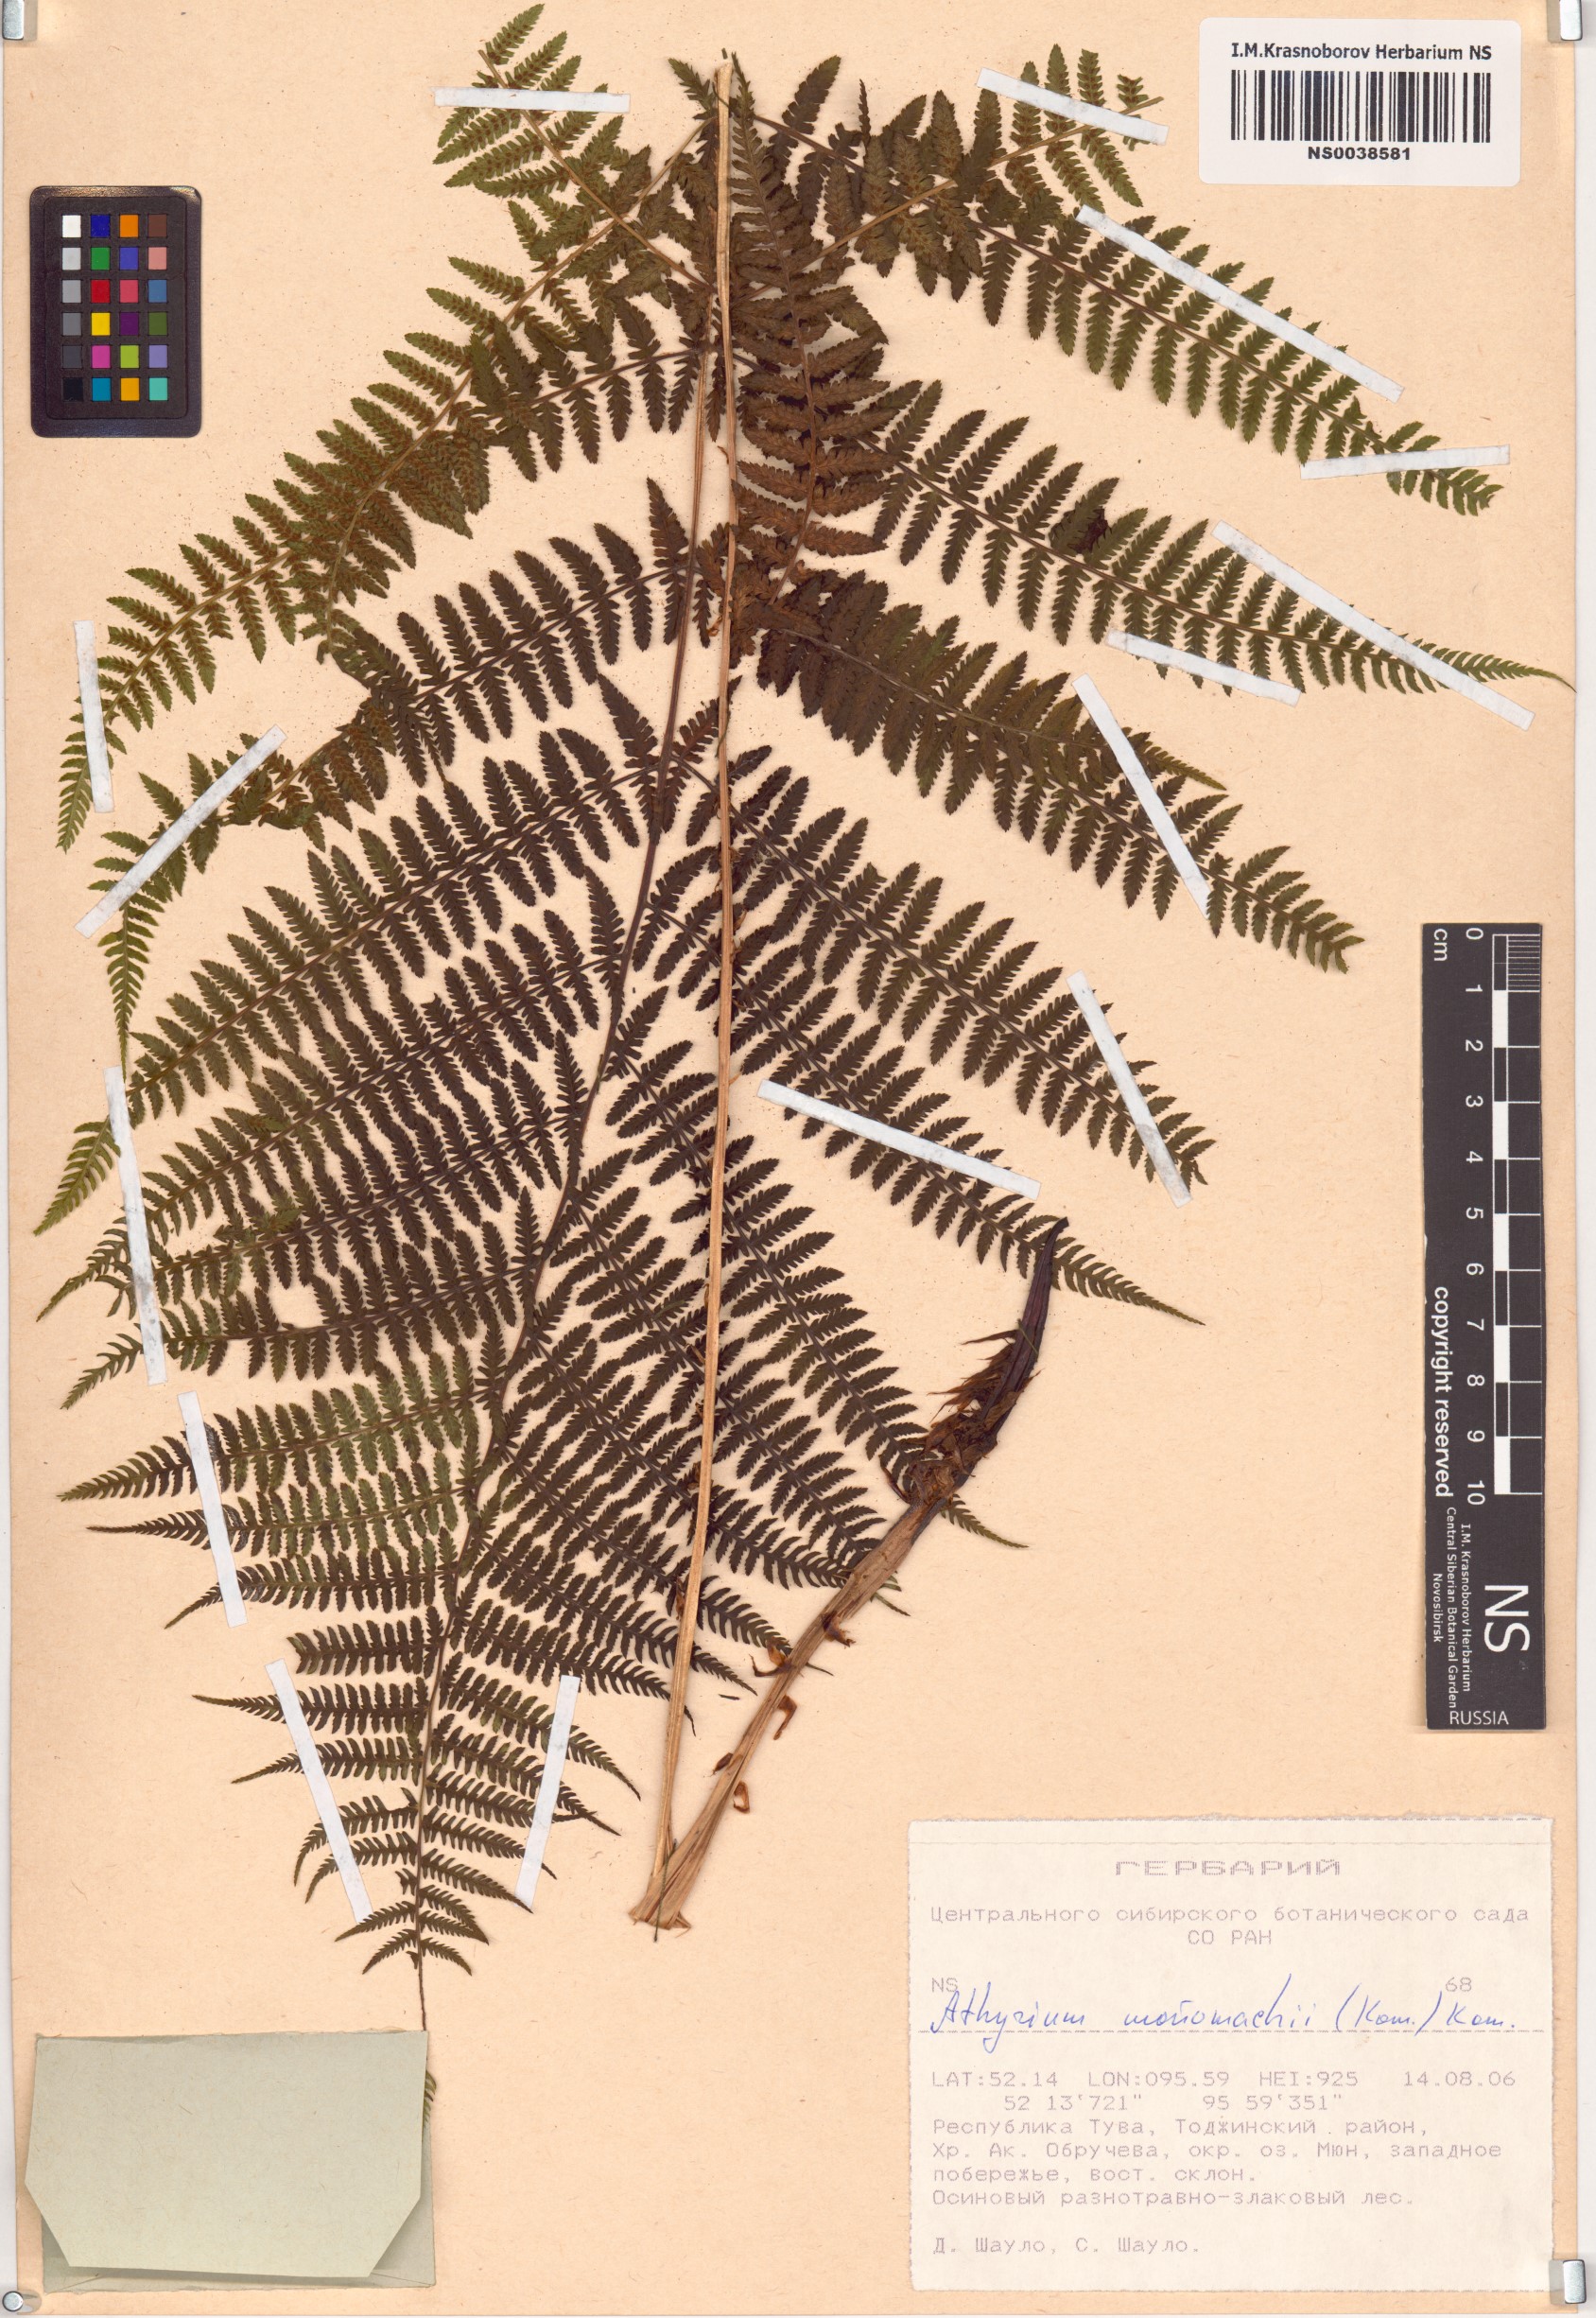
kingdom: Plantae
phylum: Tracheophyta
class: Polypodiopsida
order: Polypodiales
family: Athyriaceae
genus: Athyrium
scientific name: Athyrium monomachii
